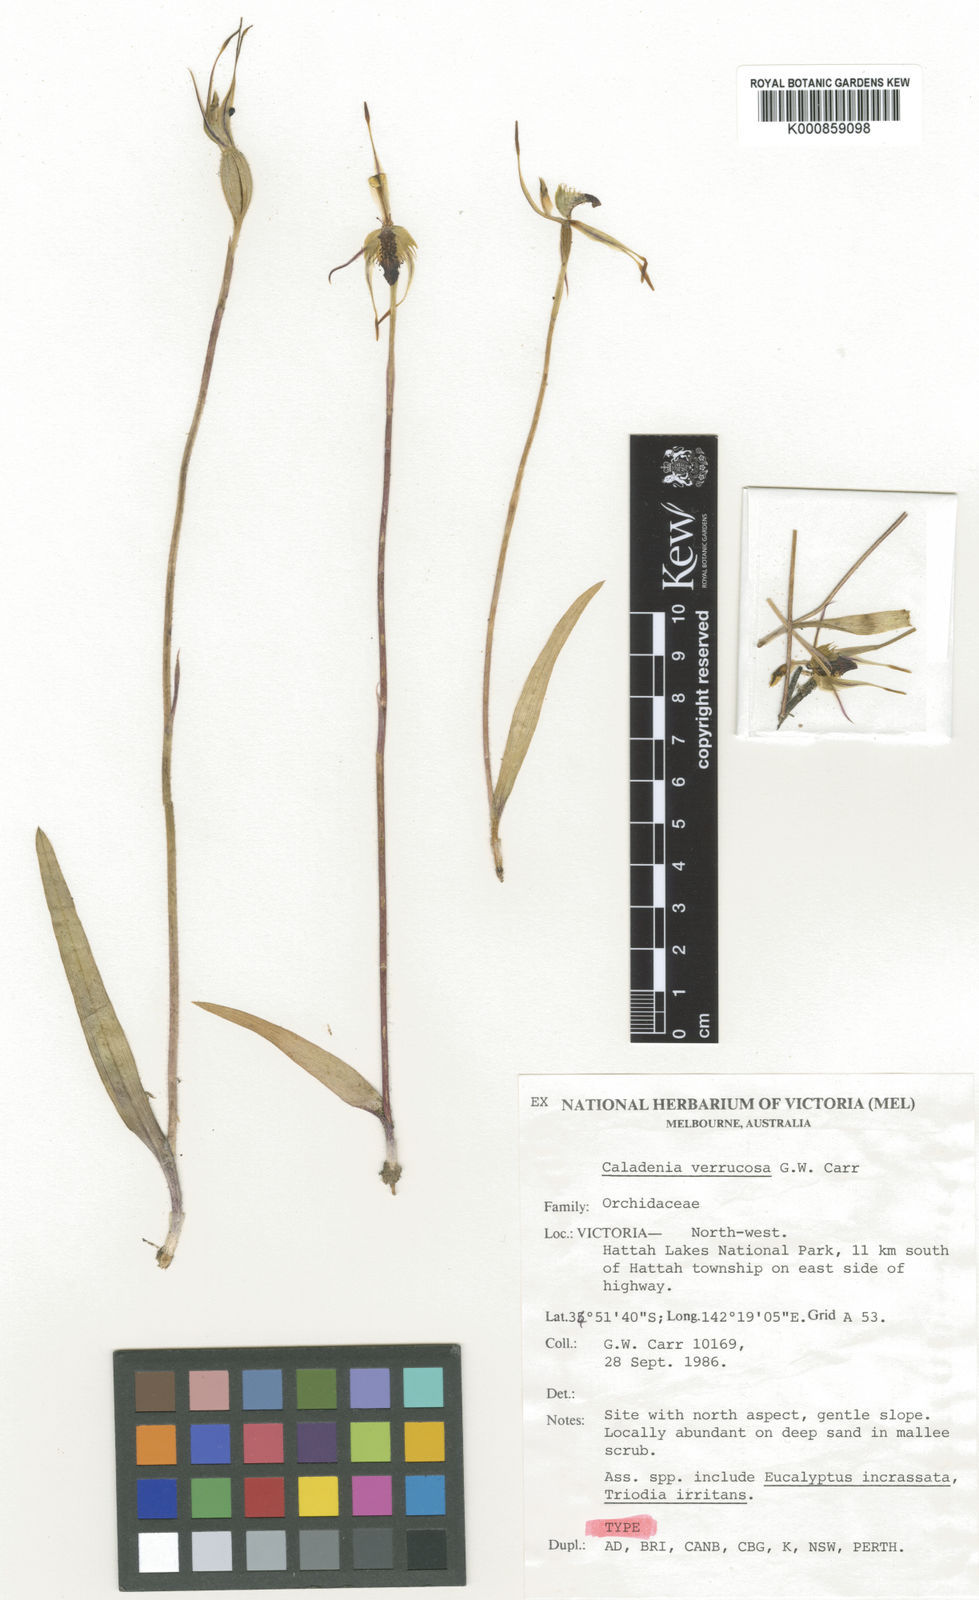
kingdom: Plantae
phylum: Tracheophyta
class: Liliopsida
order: Asparagales
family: Orchidaceae
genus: Caladenia
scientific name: Caladenia verrucosa
